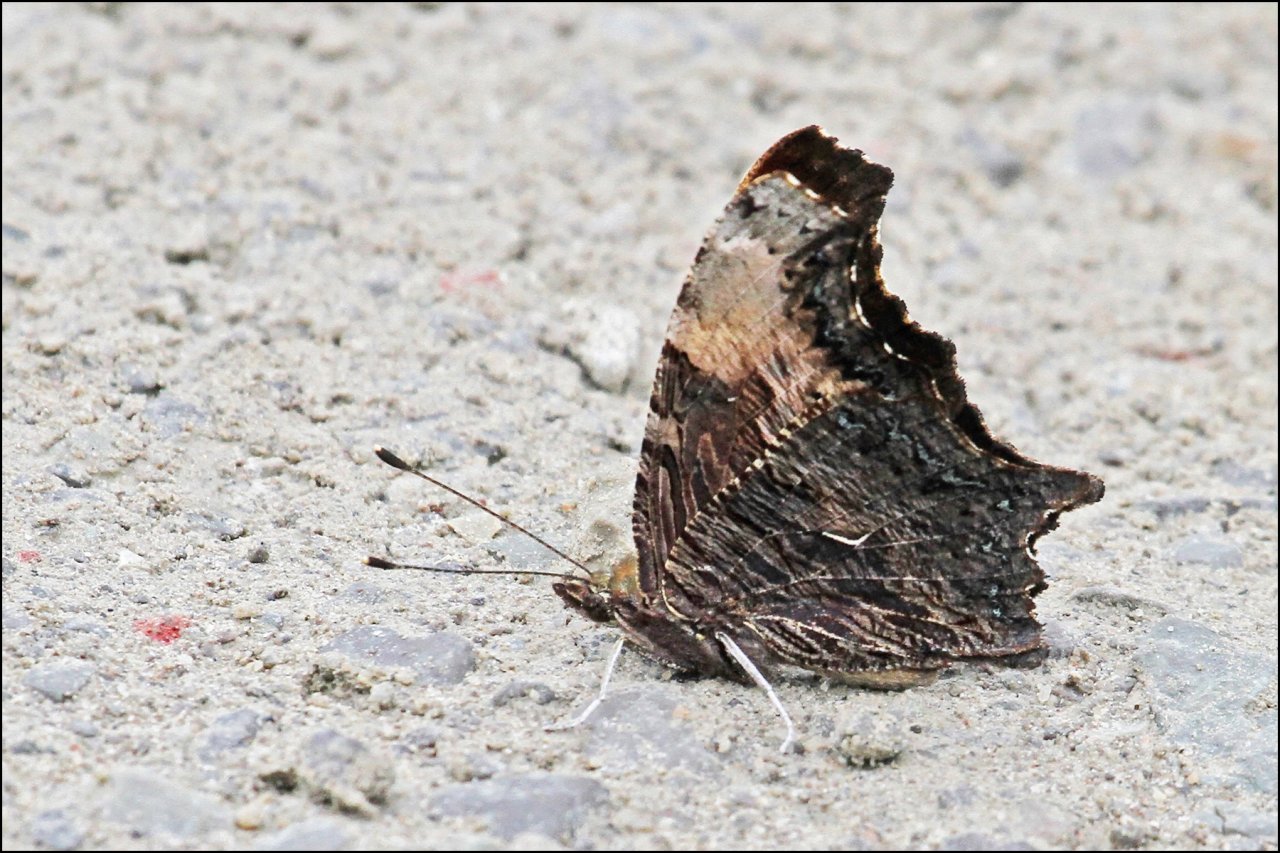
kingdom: Animalia
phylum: Arthropoda
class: Insecta
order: Lepidoptera
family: Nymphalidae
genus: Polygonia
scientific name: Polygonia progne
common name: Gray Comma
